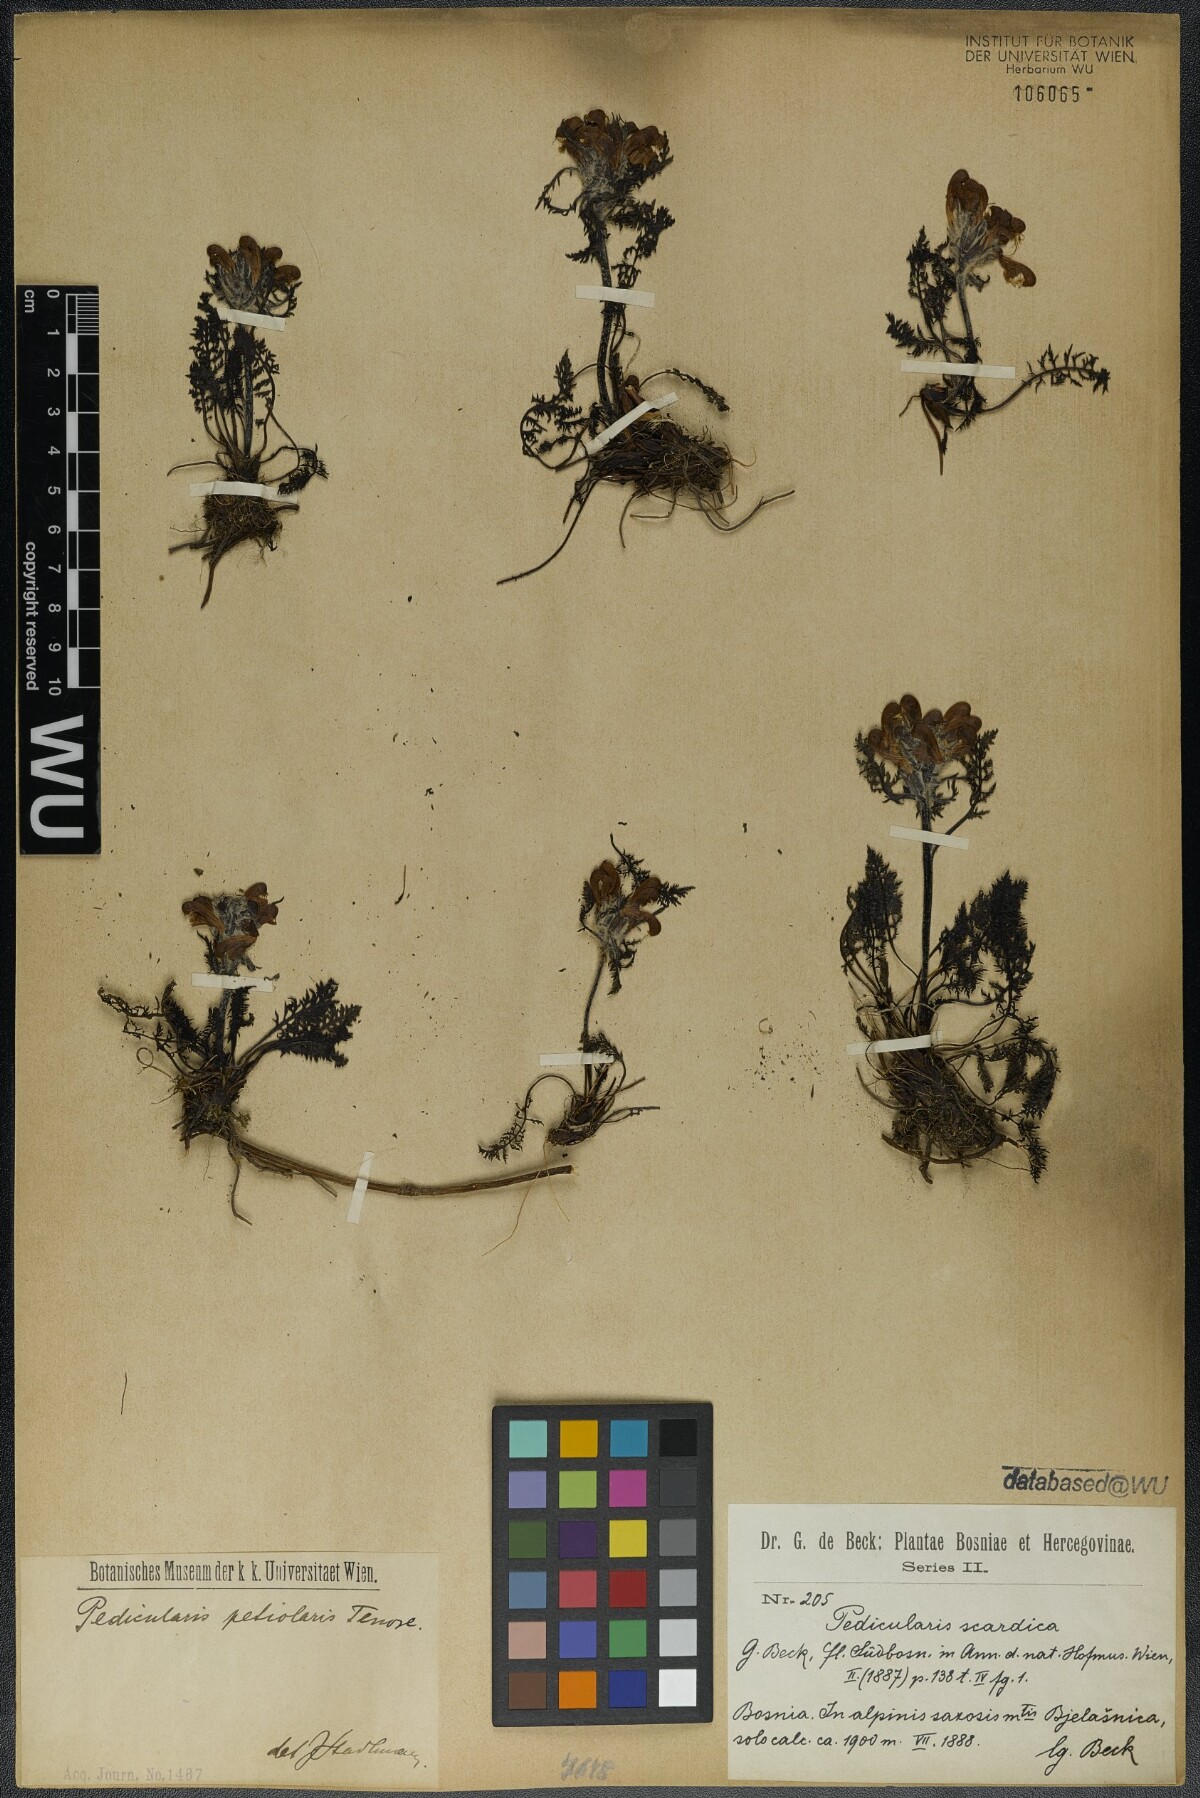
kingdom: Plantae
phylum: Tracheophyta
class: Magnoliopsida
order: Lamiales
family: Orobanchaceae
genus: Pedicularis
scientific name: Pedicularis petiolaris
